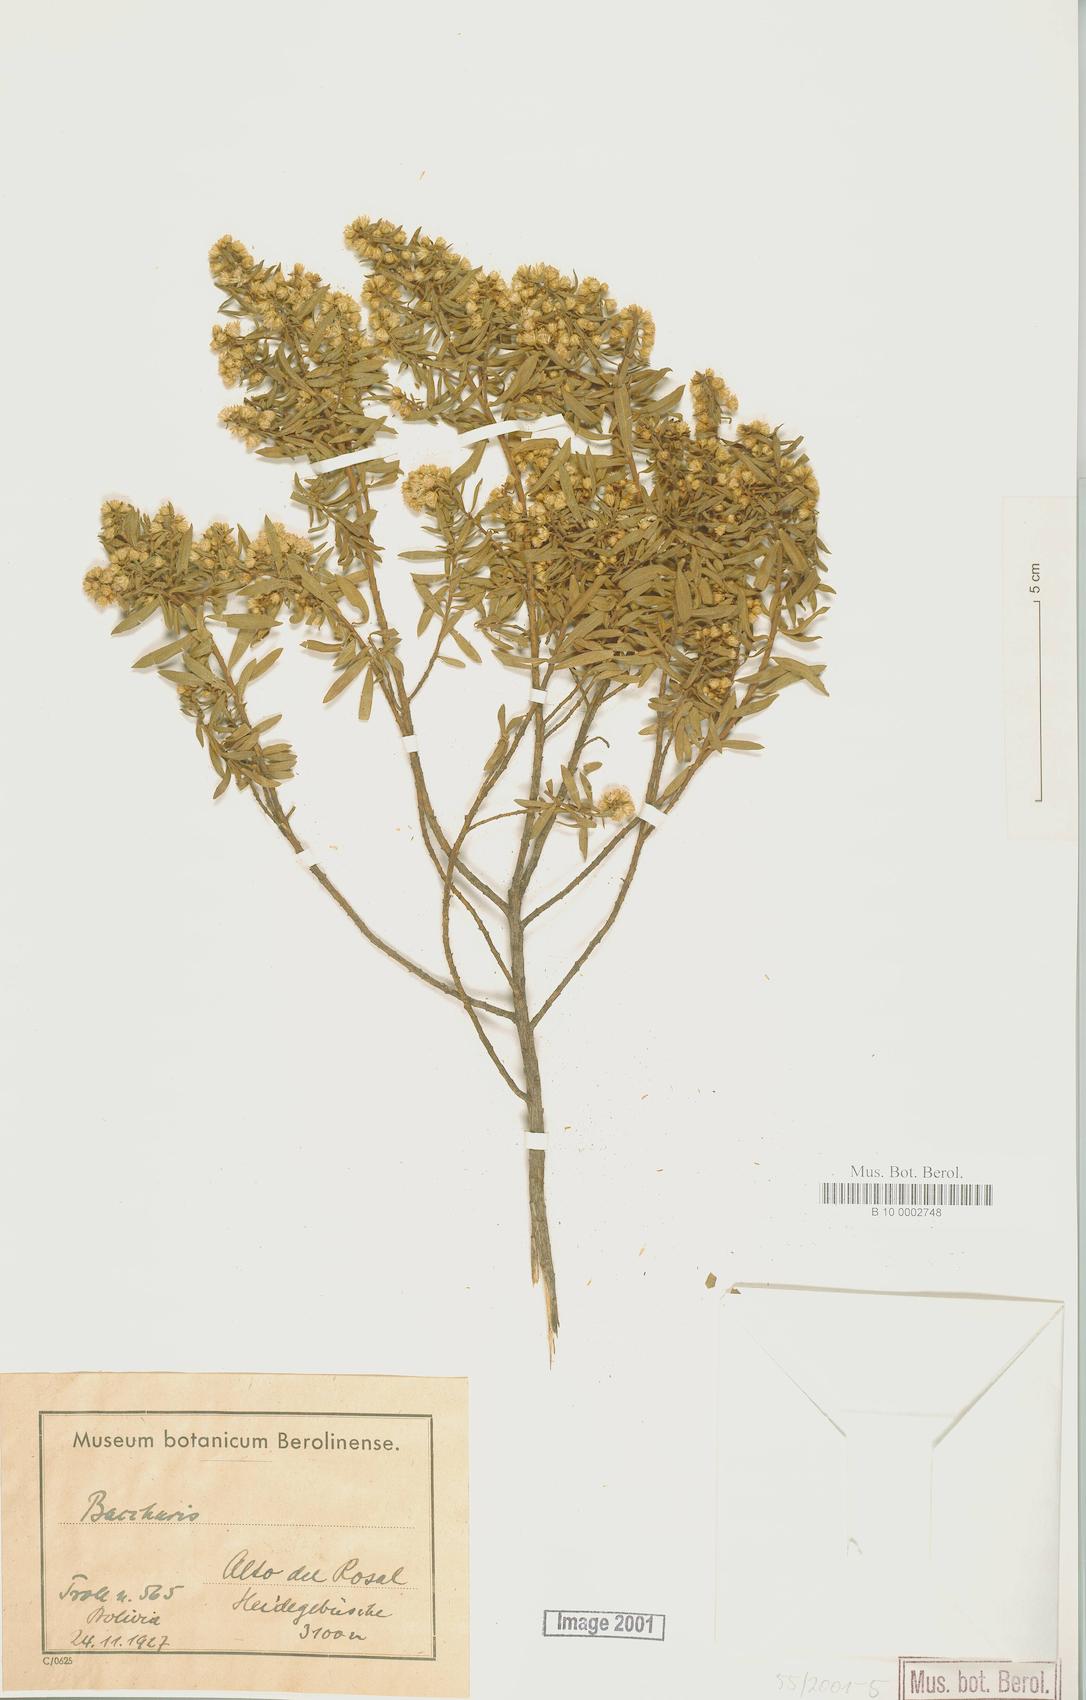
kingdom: Plantae
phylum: Tracheophyta
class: Magnoliopsida
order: Asterales
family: Asteraceae
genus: Baccharis
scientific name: Baccharis
